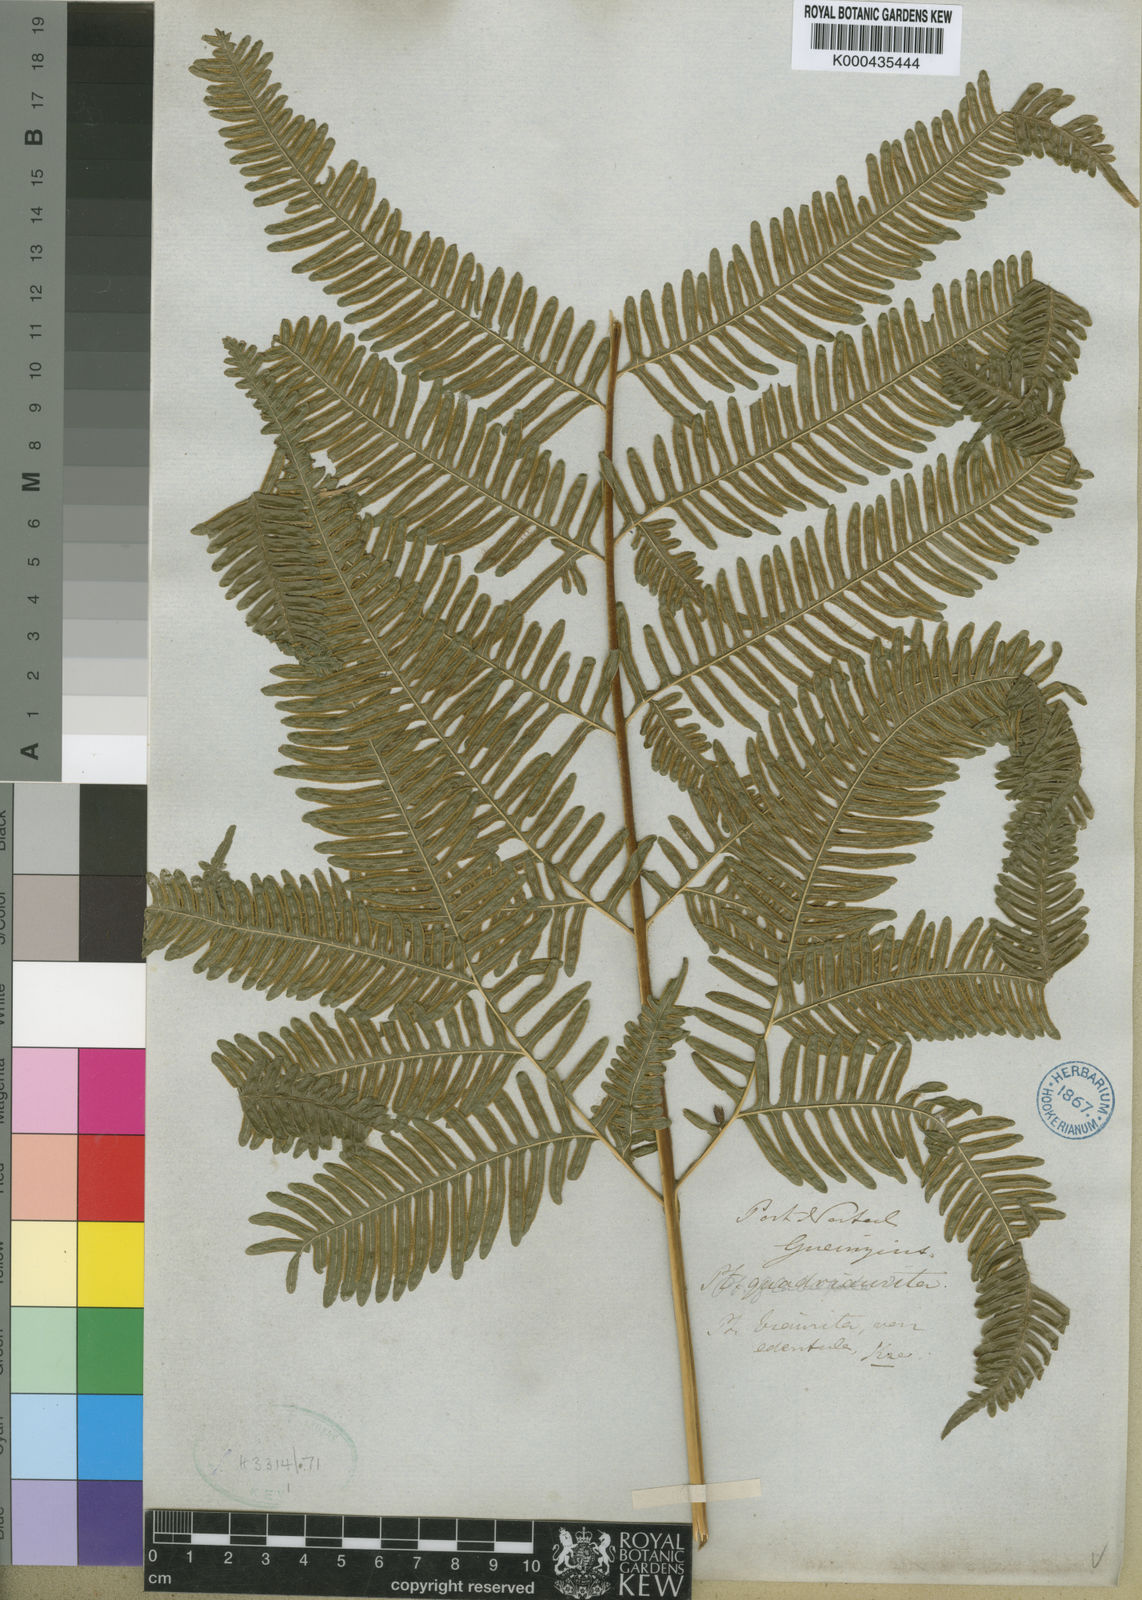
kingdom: Plantae
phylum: Tracheophyta
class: Polypodiopsida
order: Polypodiales
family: Pteridaceae
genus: Pteris
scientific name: Pteris catoptera
